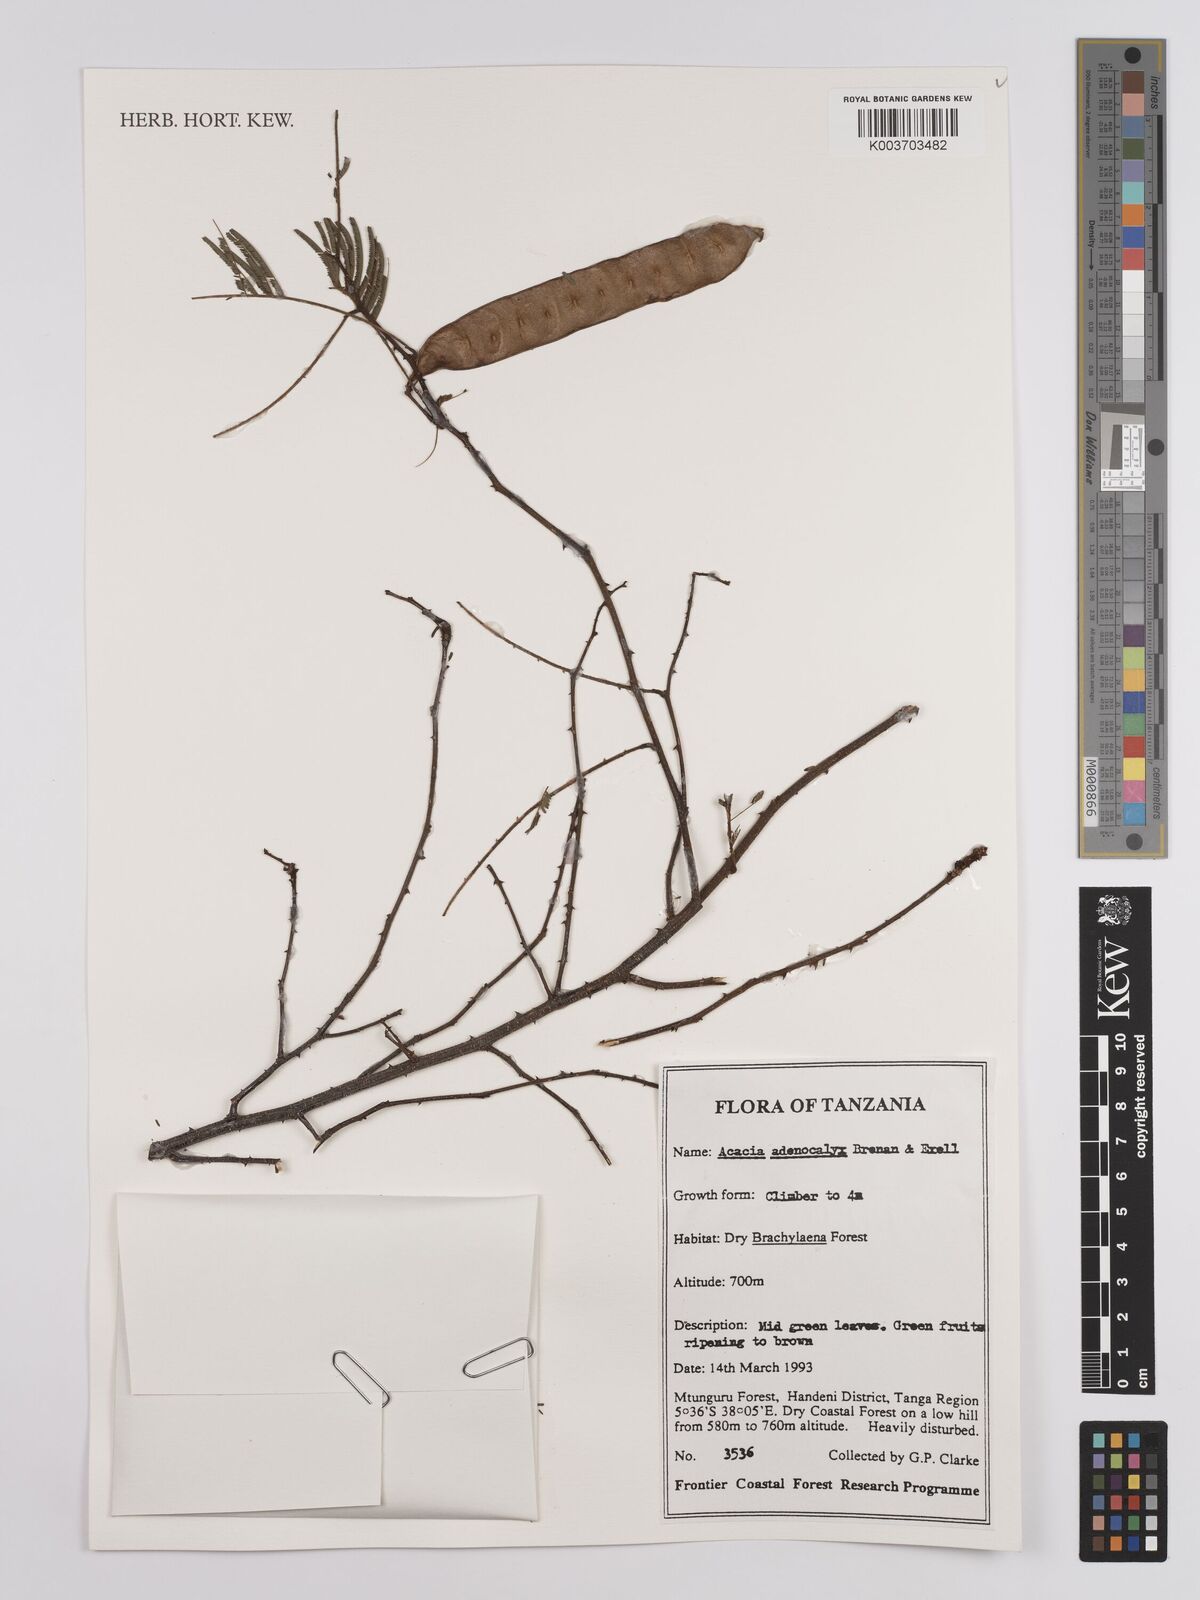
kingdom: Plantae
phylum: Tracheophyta
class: Magnoliopsida
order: Fabales
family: Fabaceae
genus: Senegalia
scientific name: Senegalia adenocalyx
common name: Pfurura
